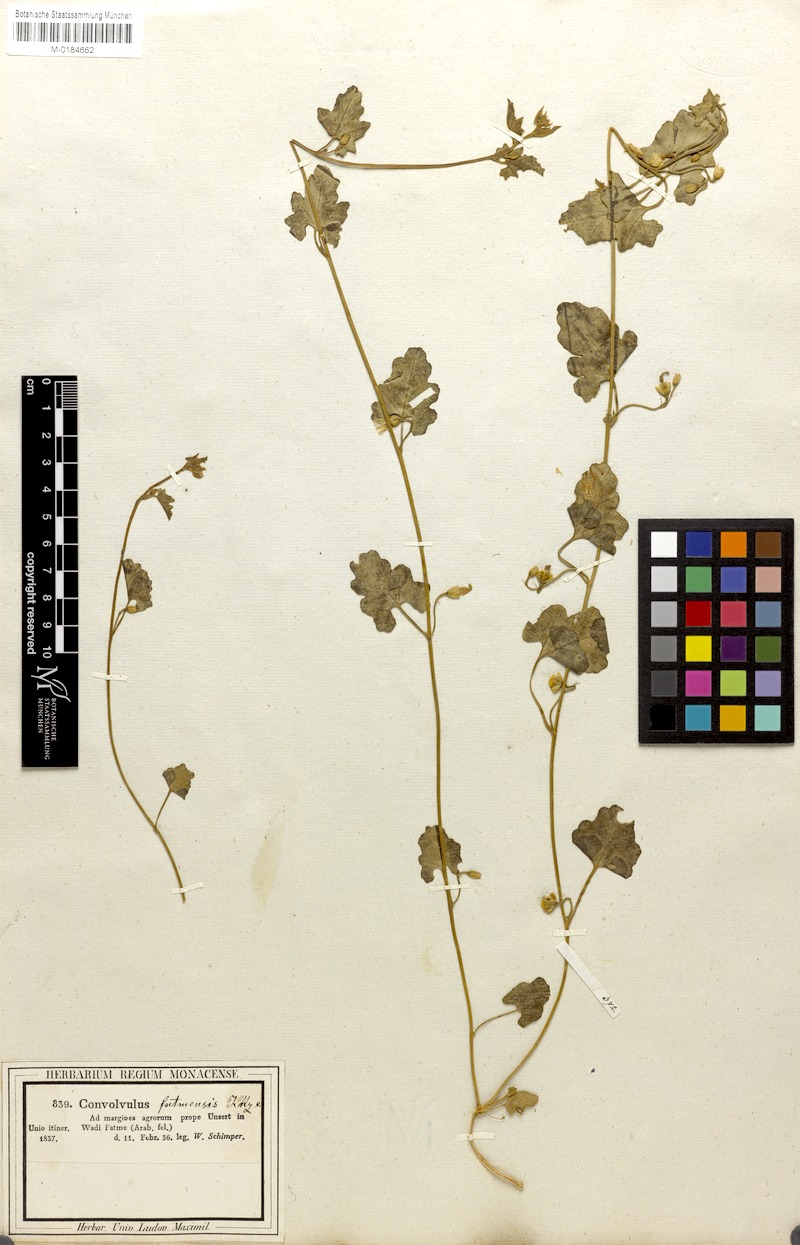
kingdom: Plantae
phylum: Tracheophyta
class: Magnoliopsida
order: Solanales
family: Convolvulaceae
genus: Convolvulus
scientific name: Convolvulus fatmensis
